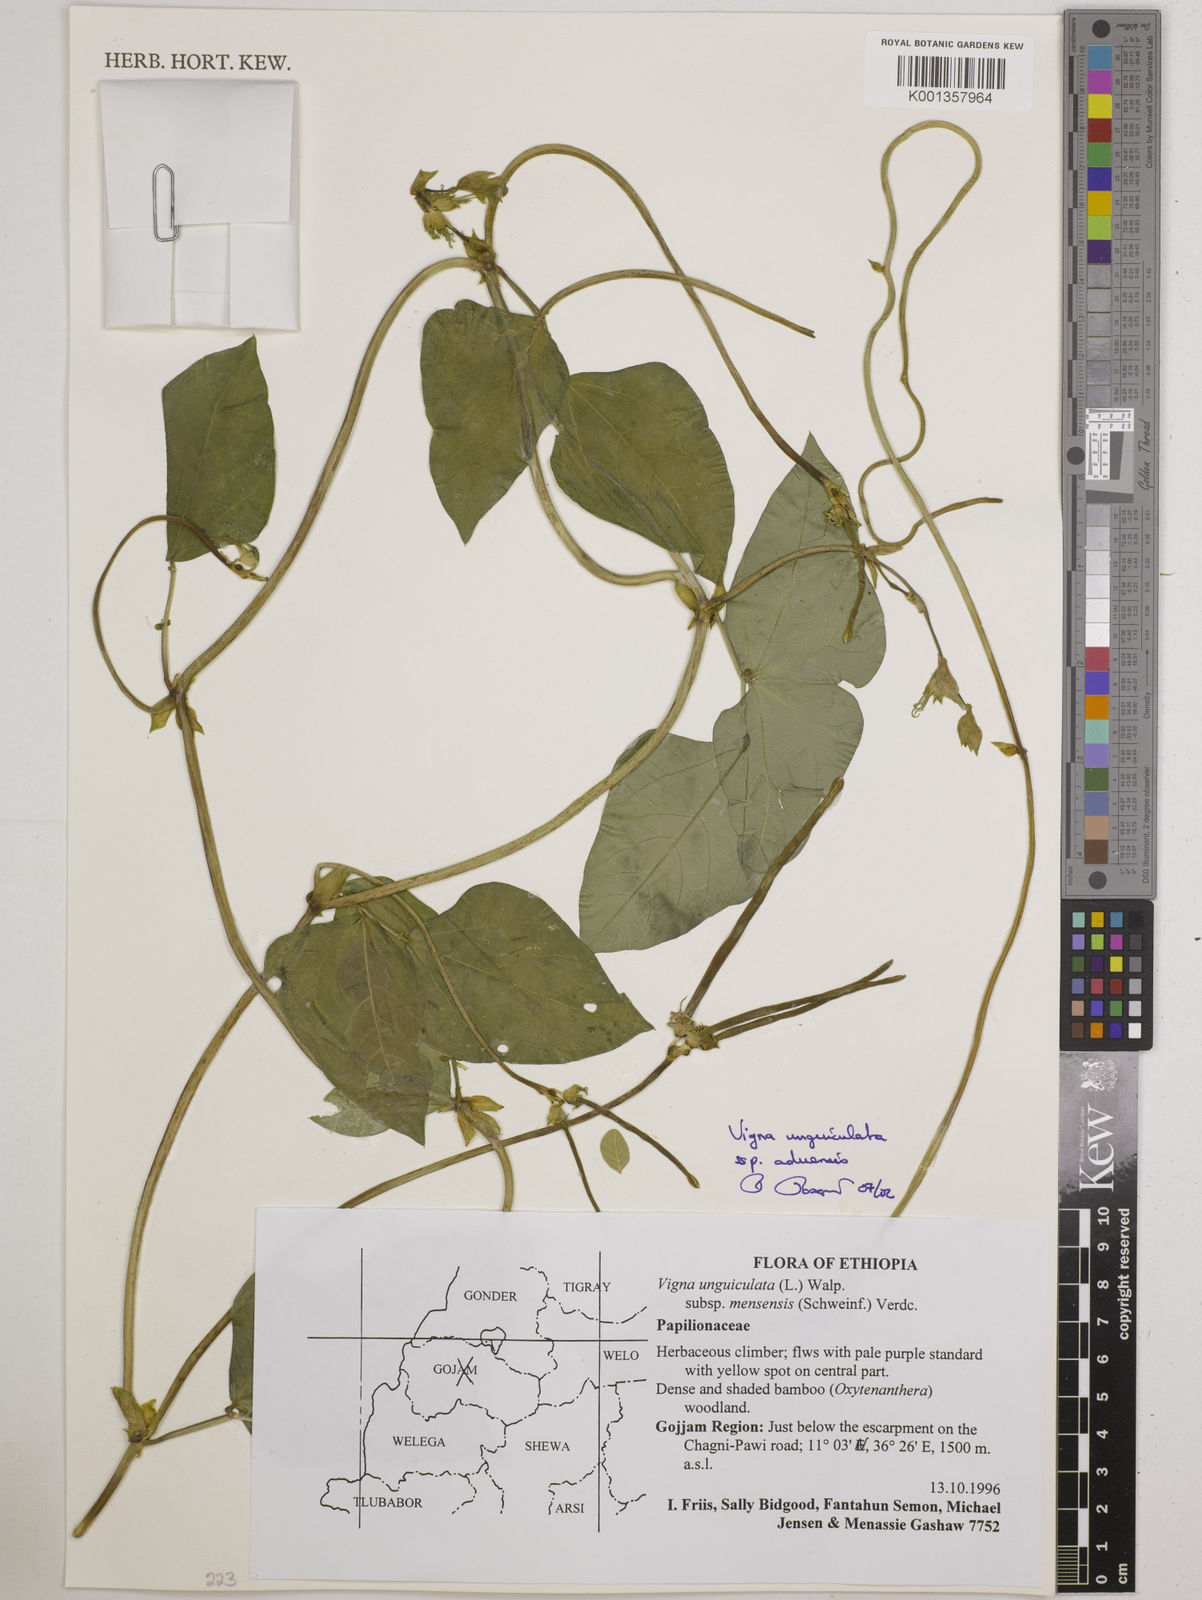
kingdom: Plantae
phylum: Tracheophyta
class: Magnoliopsida
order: Fabales
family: Fabaceae
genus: Vigna
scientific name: Vigna unguiculata
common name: Cowpea
